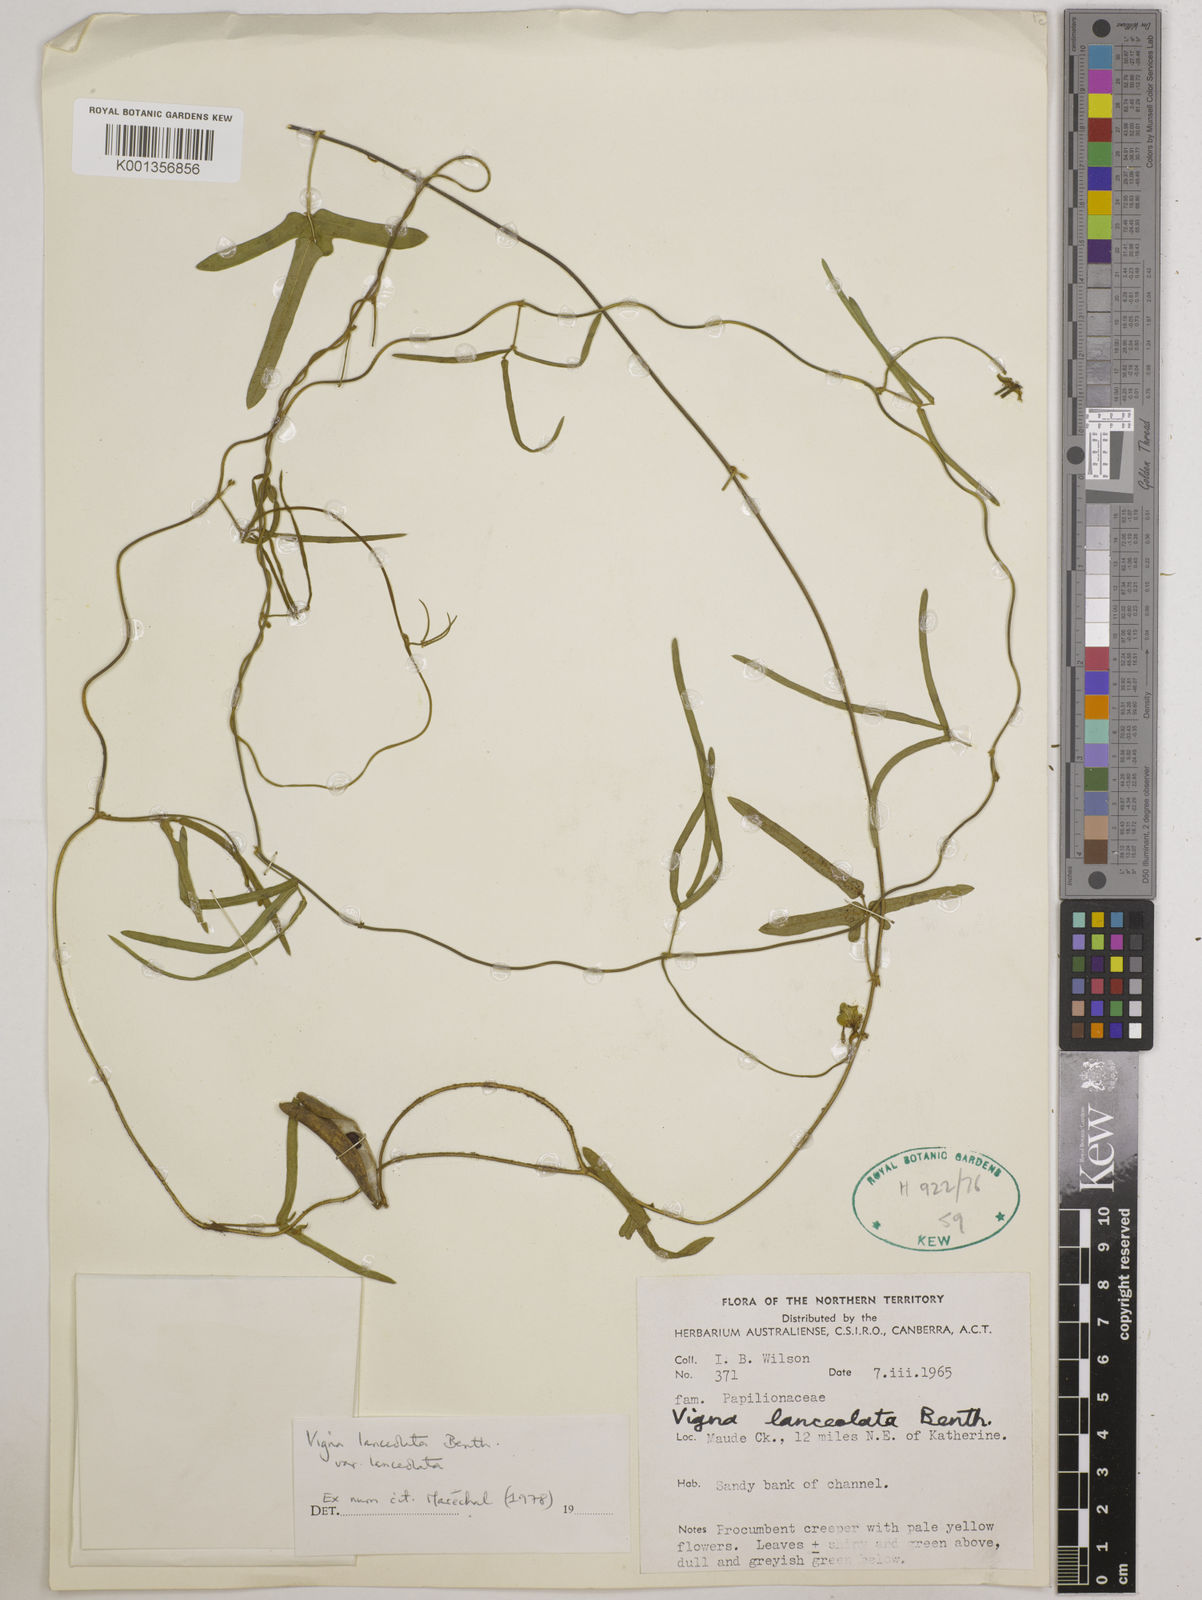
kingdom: Plantae
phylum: Tracheophyta
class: Magnoliopsida
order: Fabales
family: Fabaceae
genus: Vigna
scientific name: Vigna lanceolata
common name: Maloga-bean
